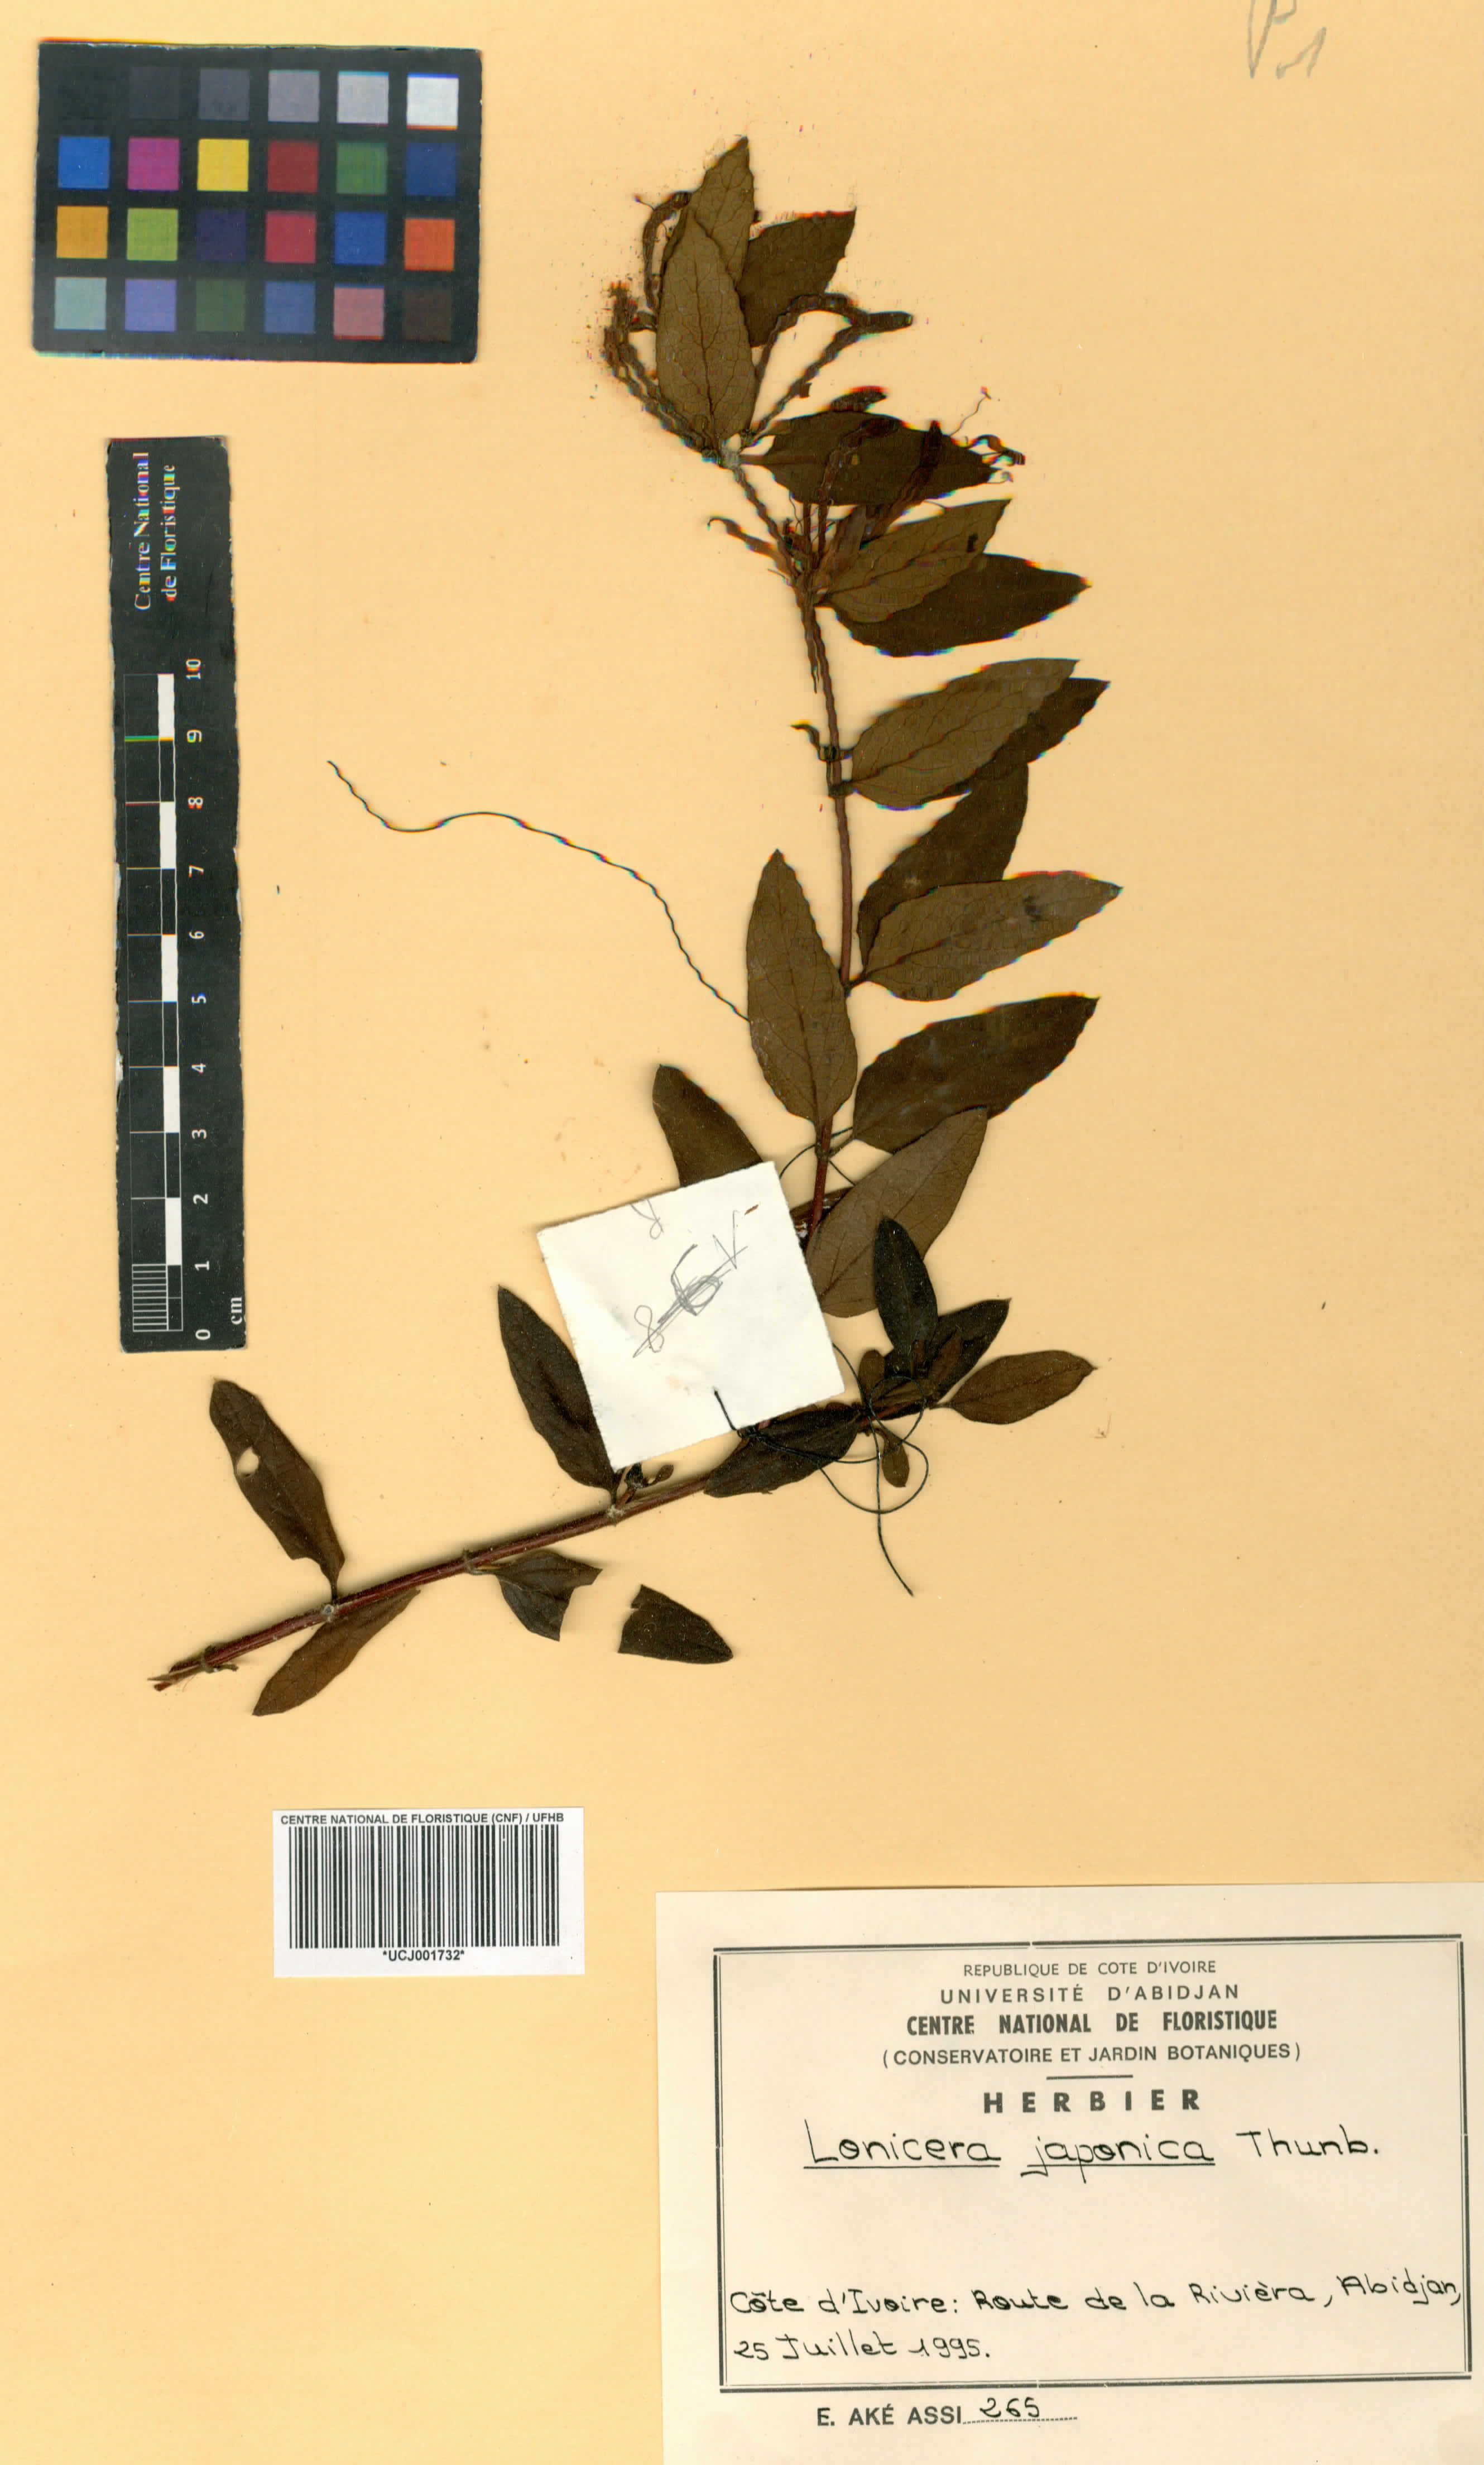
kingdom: Plantae
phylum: Tracheophyta
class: Magnoliopsida
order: Dipsacales
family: Caprifoliaceae
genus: Lonicera
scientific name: Lonicera japonica
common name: Japanese honeysuckle
